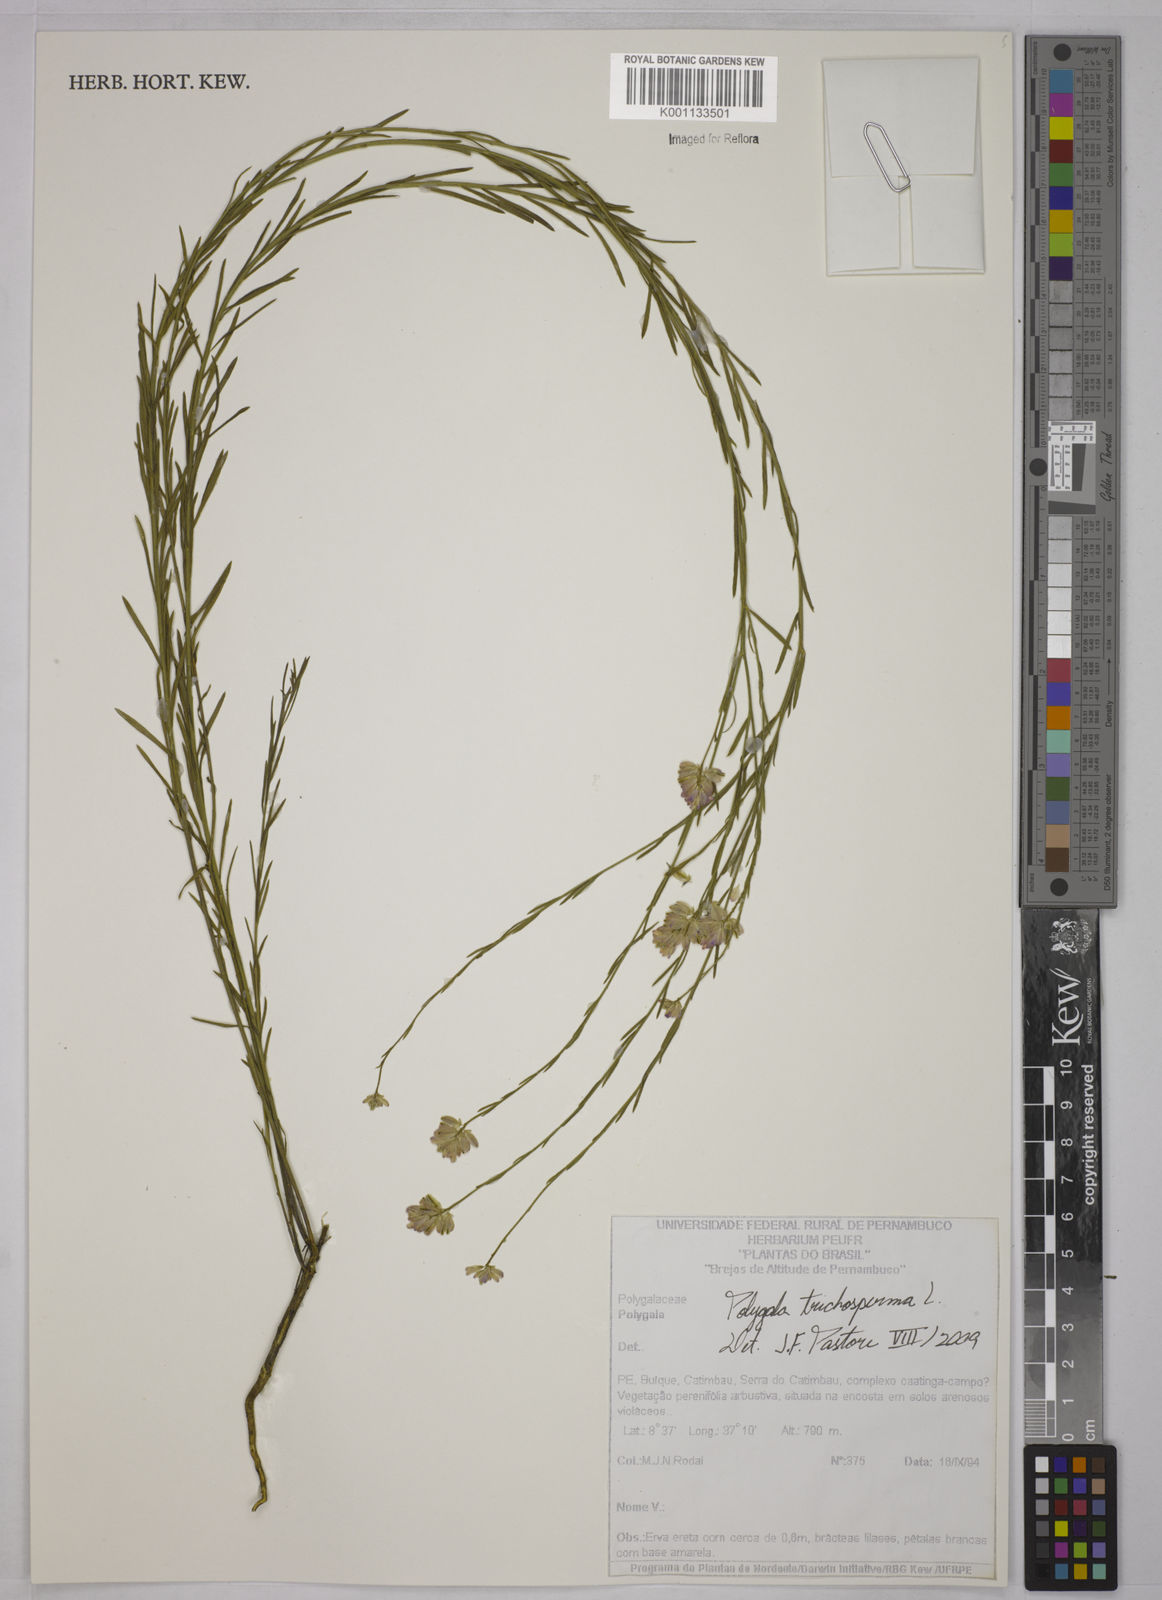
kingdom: Plantae
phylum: Tracheophyta
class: Magnoliopsida
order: Fabales
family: Polygalaceae
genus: Polygala
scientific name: Polygala trichosperma
